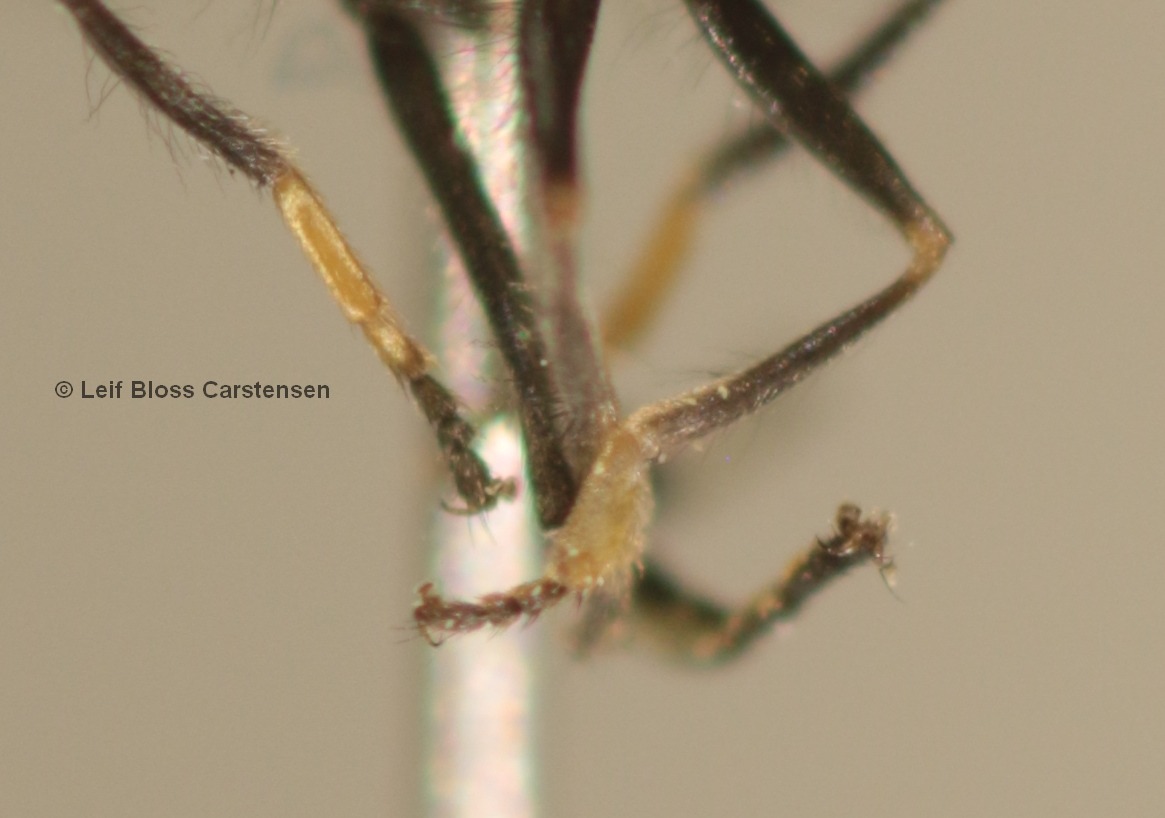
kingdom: Animalia
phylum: Arthropoda
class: Insecta
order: Diptera
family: Syrphidae
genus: Platycheirus
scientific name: Platycheirus discimanus
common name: Skive-bredfodsflue
